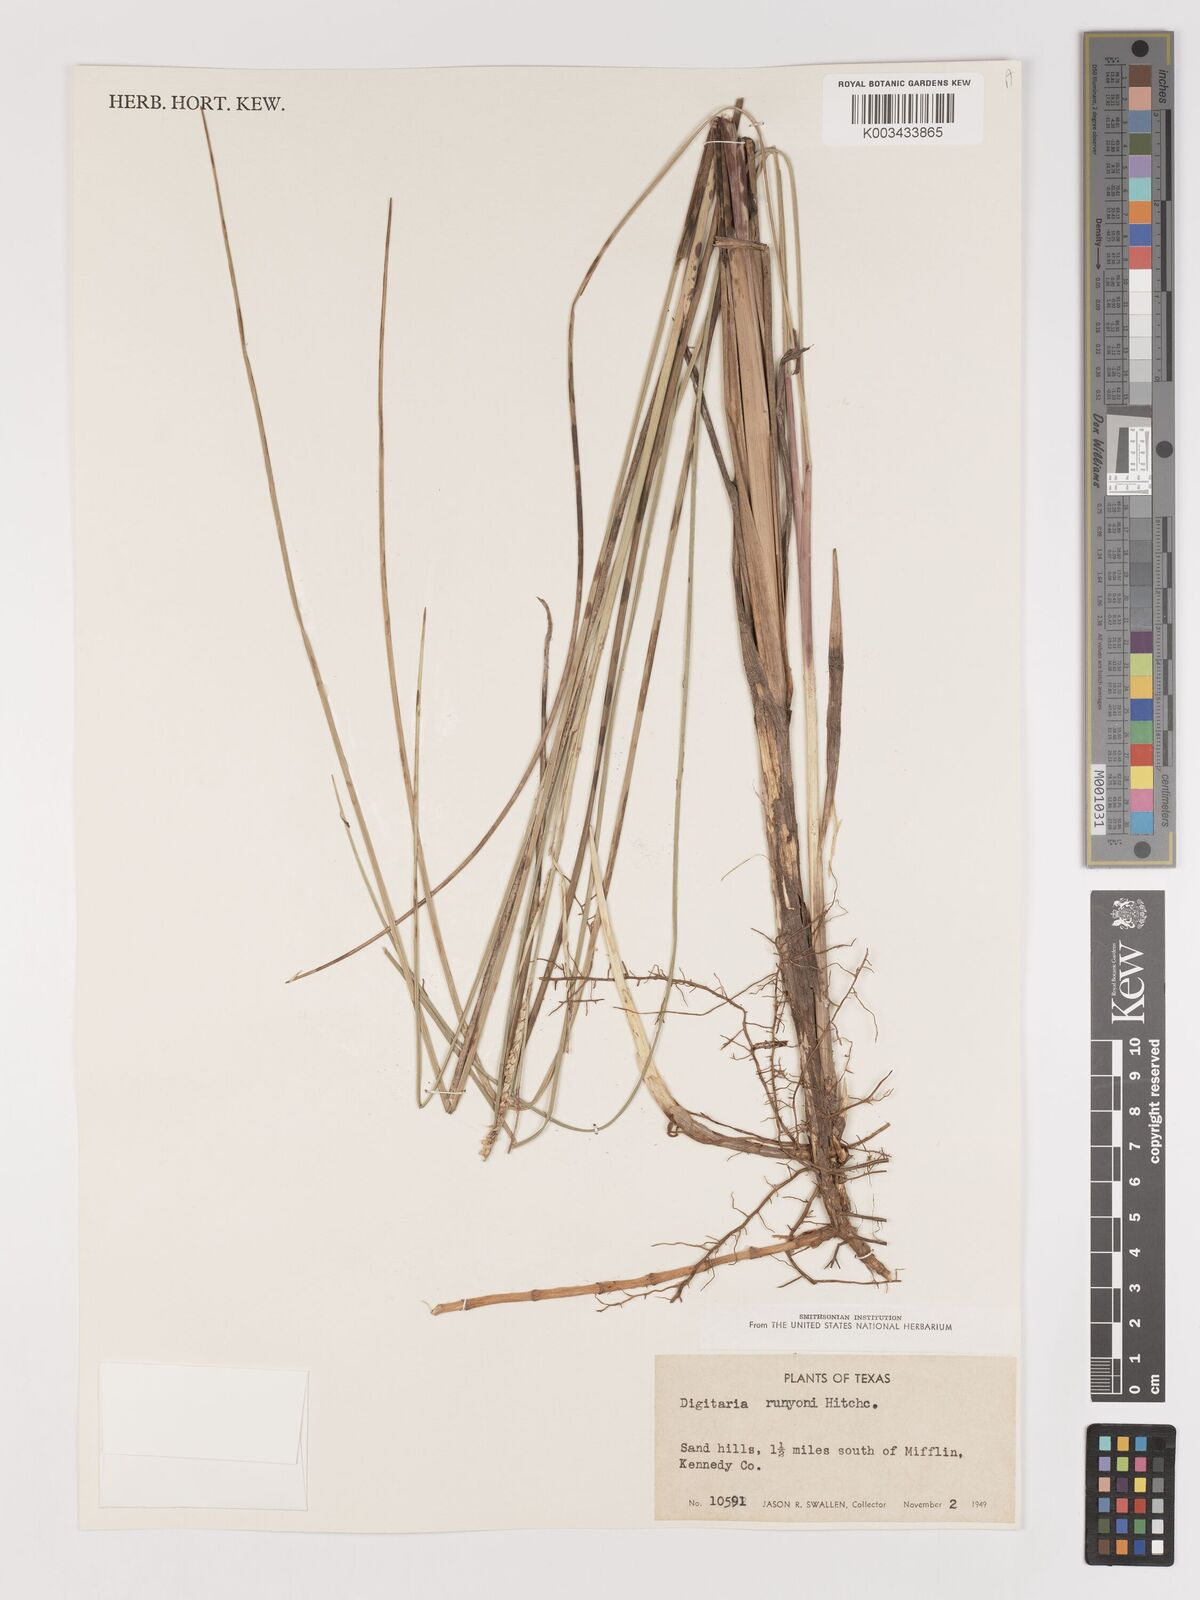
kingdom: Plantae
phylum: Tracheophyta
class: Liliopsida
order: Poales
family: Poaceae
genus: Digitaria
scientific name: Digitaria texana
